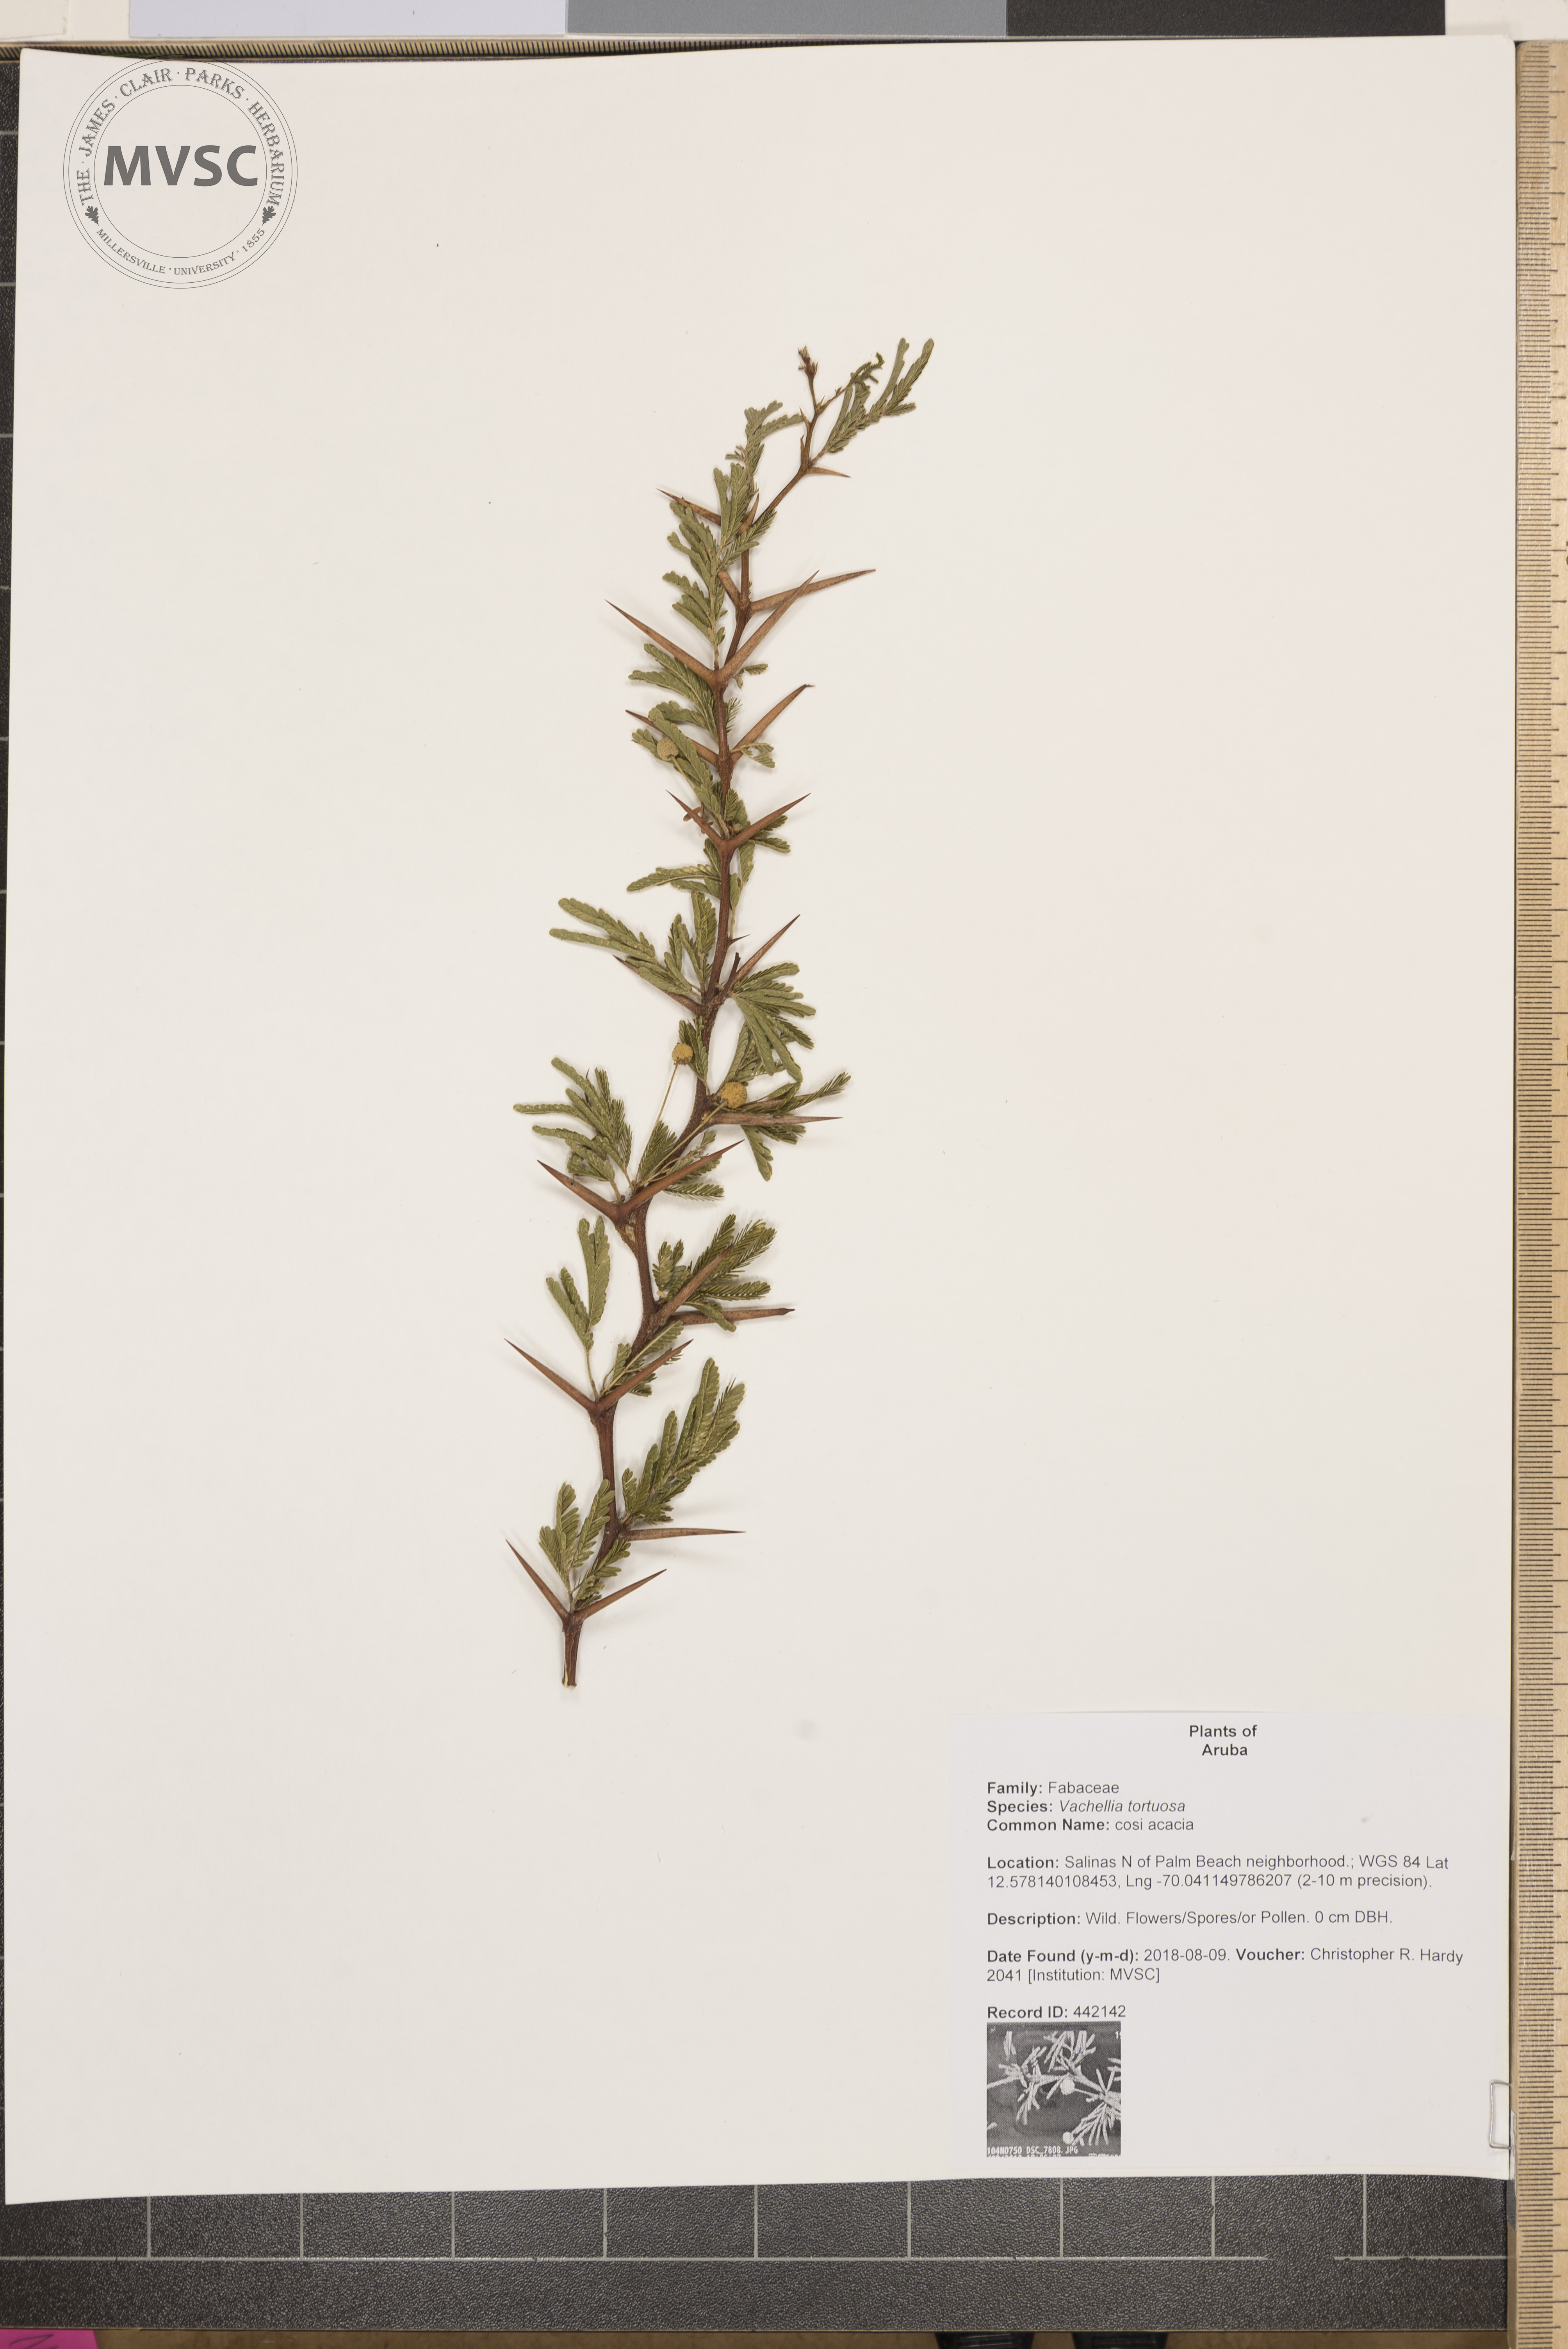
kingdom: Plantae
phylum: Tracheophyta
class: Magnoliopsida
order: Fabales
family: Fabaceae
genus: Vachellia
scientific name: Vachellia tortuosa
